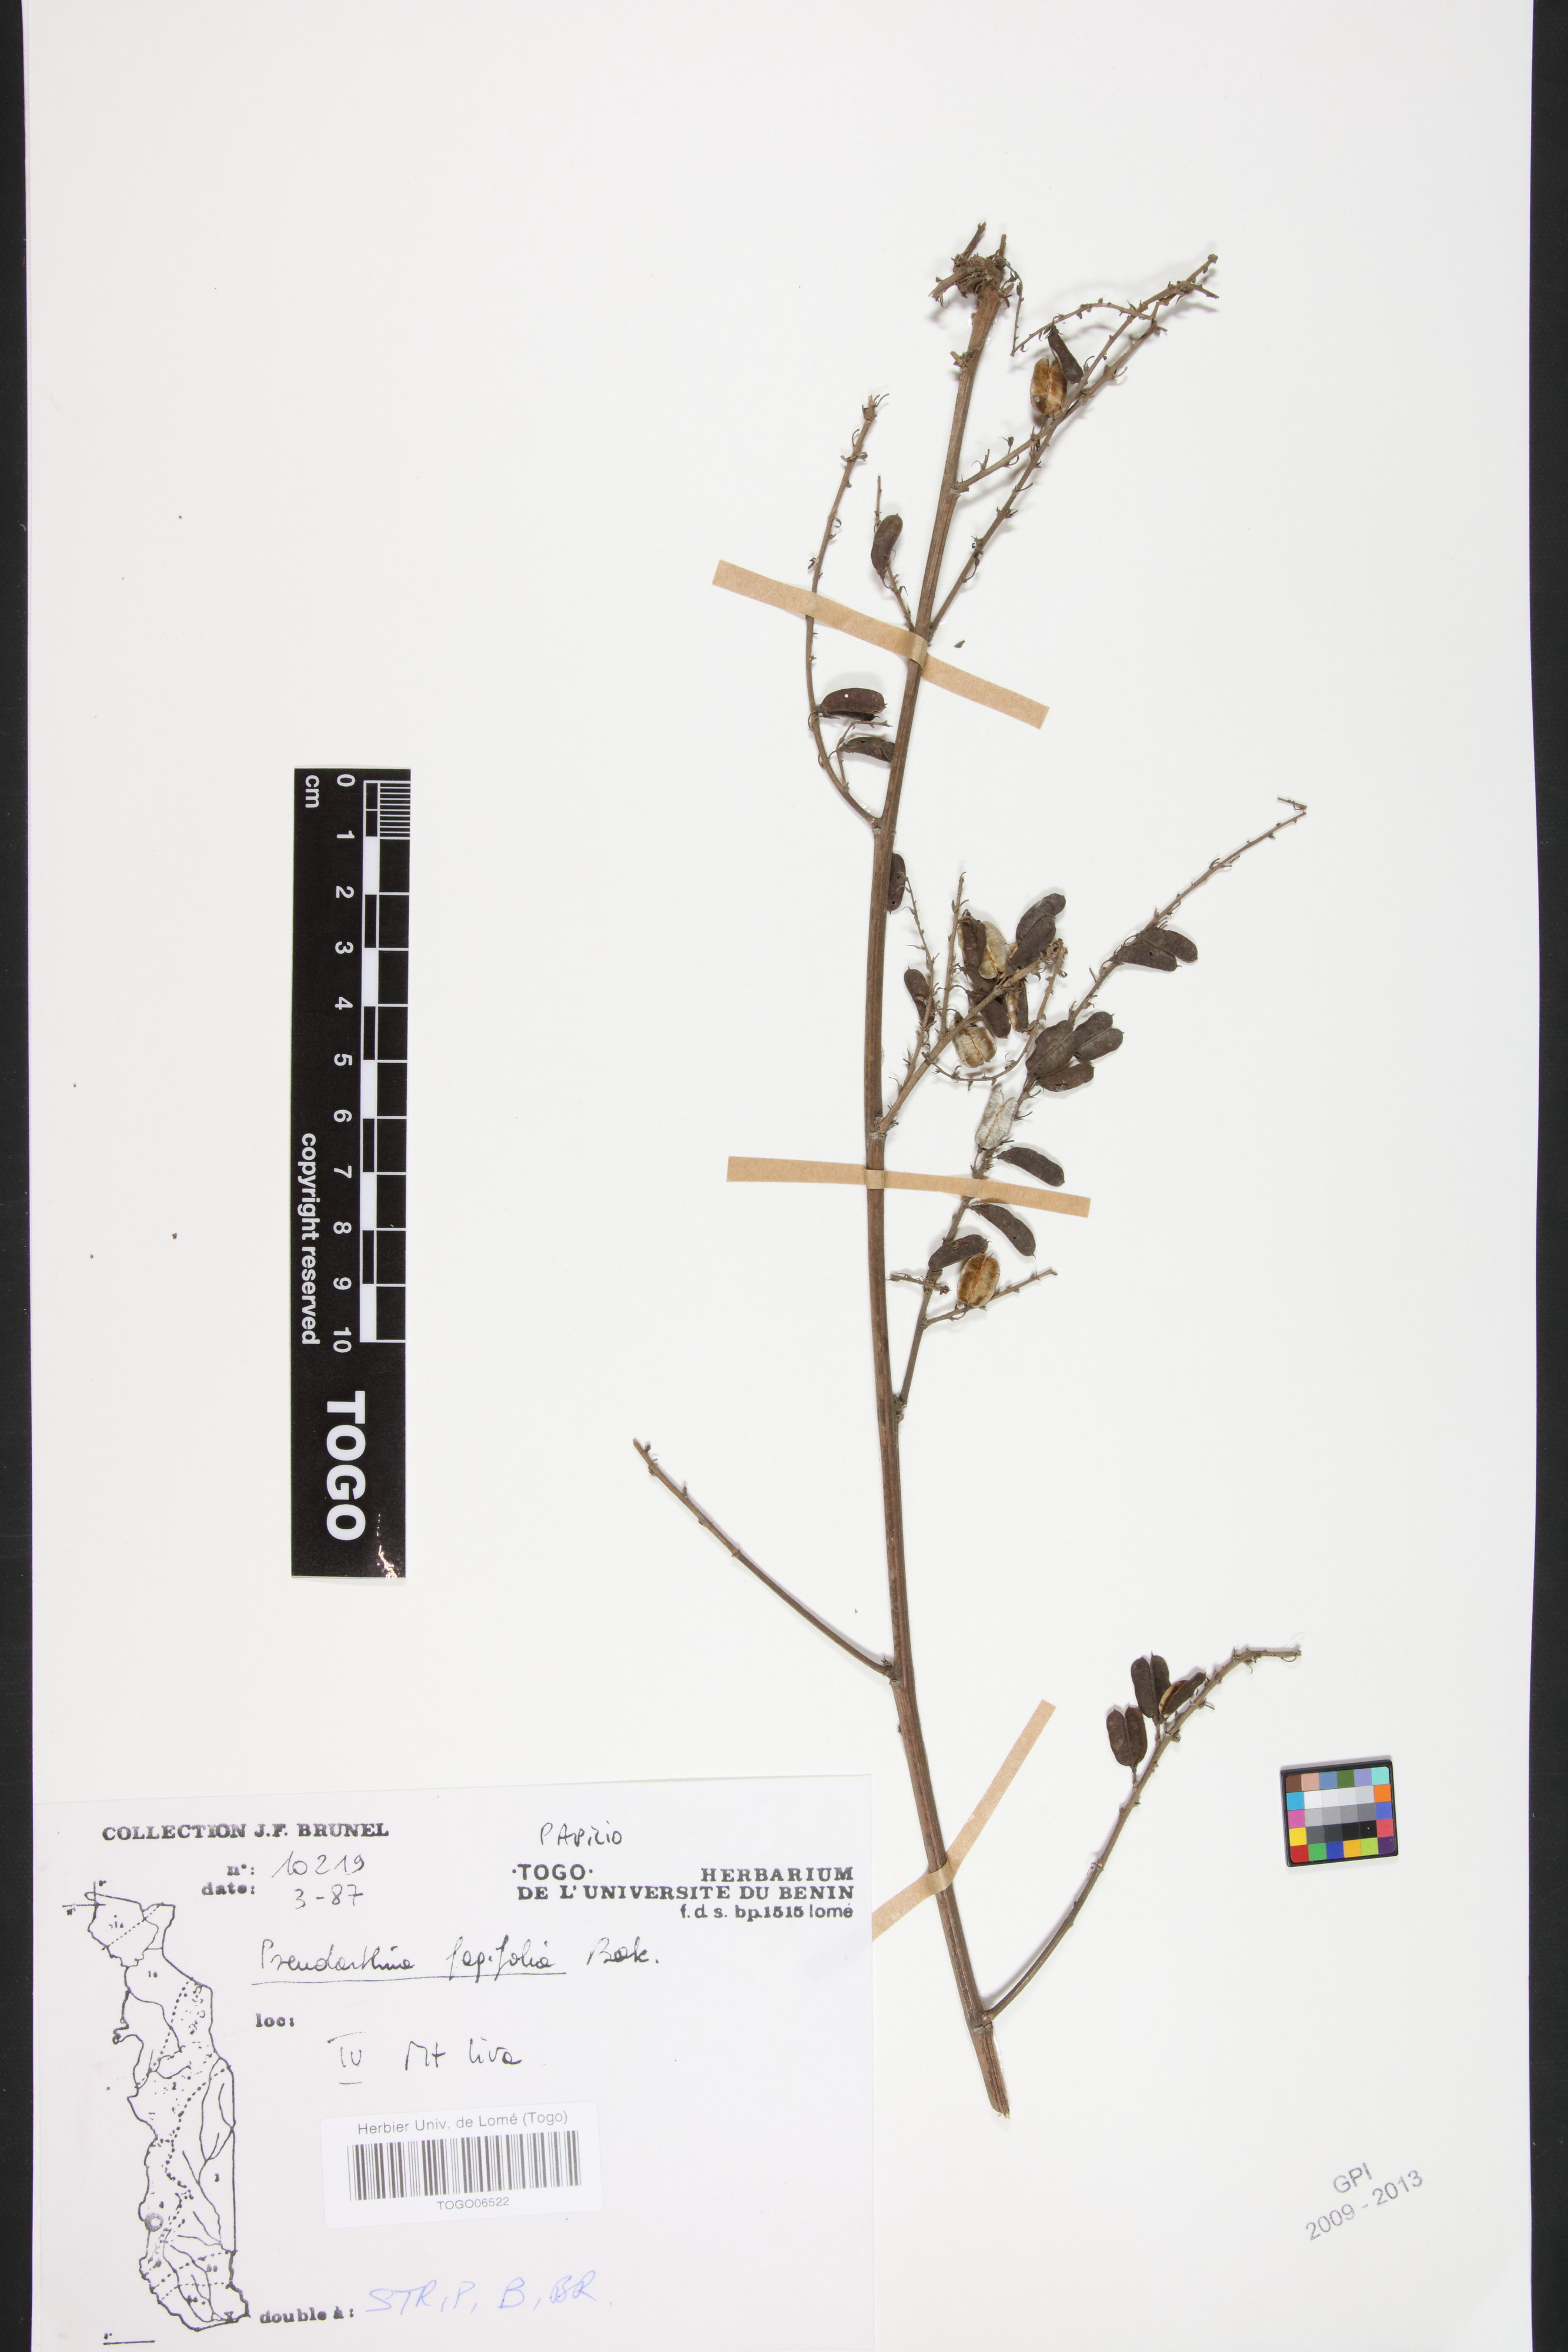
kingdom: Plantae
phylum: Tracheophyta
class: Magnoliopsida
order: Fabales
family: Fabaceae
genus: Pseudarthria
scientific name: Pseudarthria fagifolia
